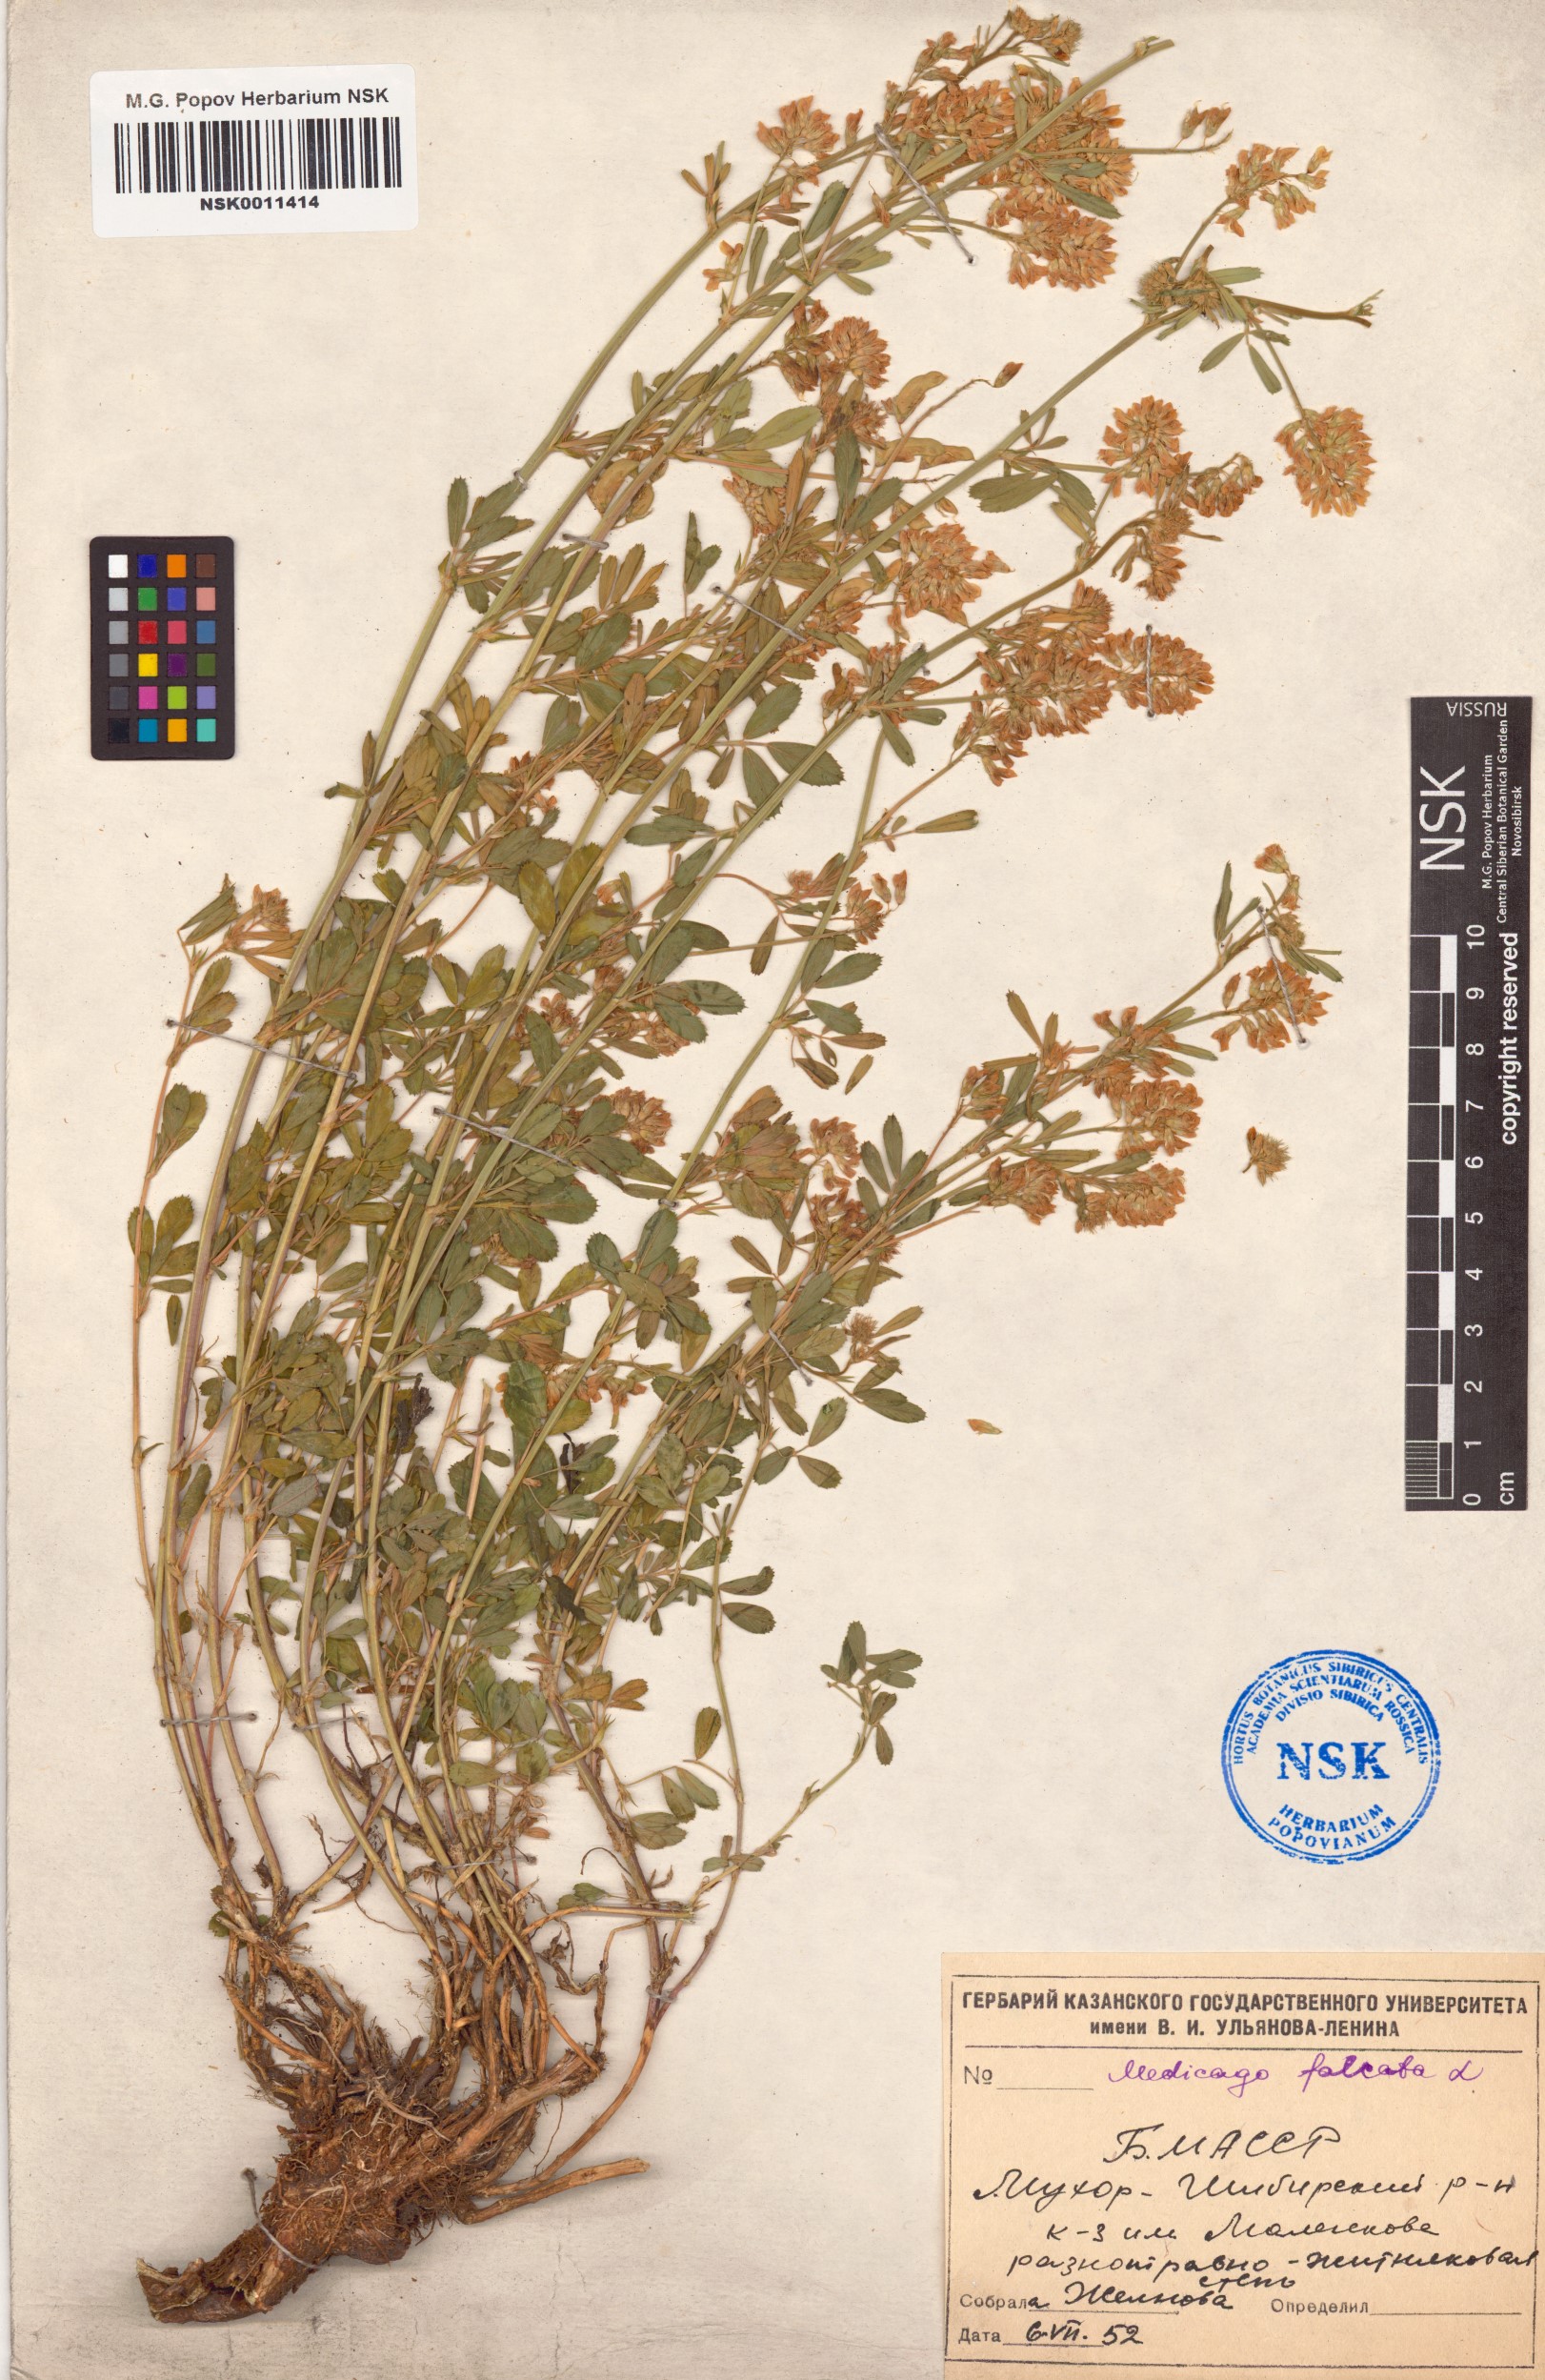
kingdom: Plantae
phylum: Tracheophyta
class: Magnoliopsida
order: Fabales
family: Fabaceae
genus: Medicago
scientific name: Medicago falcata
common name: Sickle medick
